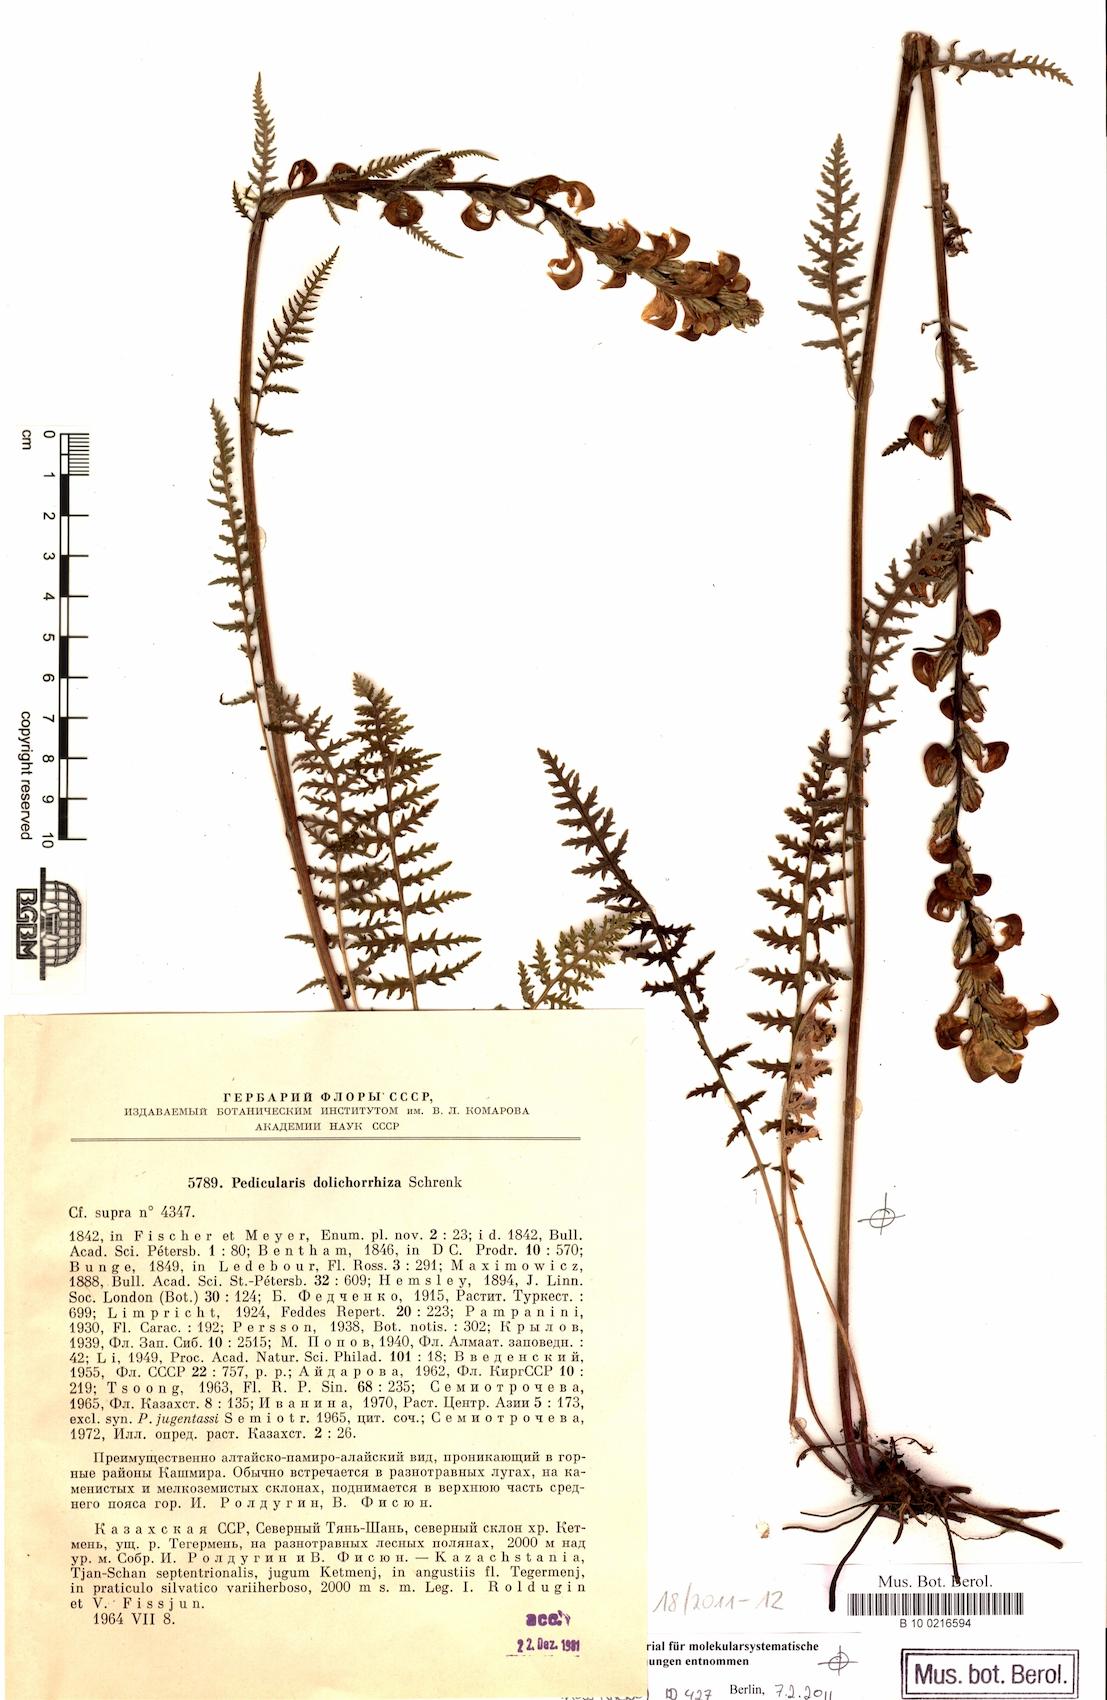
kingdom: Plantae
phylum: Tracheophyta
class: Magnoliopsida
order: Lamiales
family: Orobanchaceae
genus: Pedicularis
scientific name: Pedicularis dolichorrhiza
